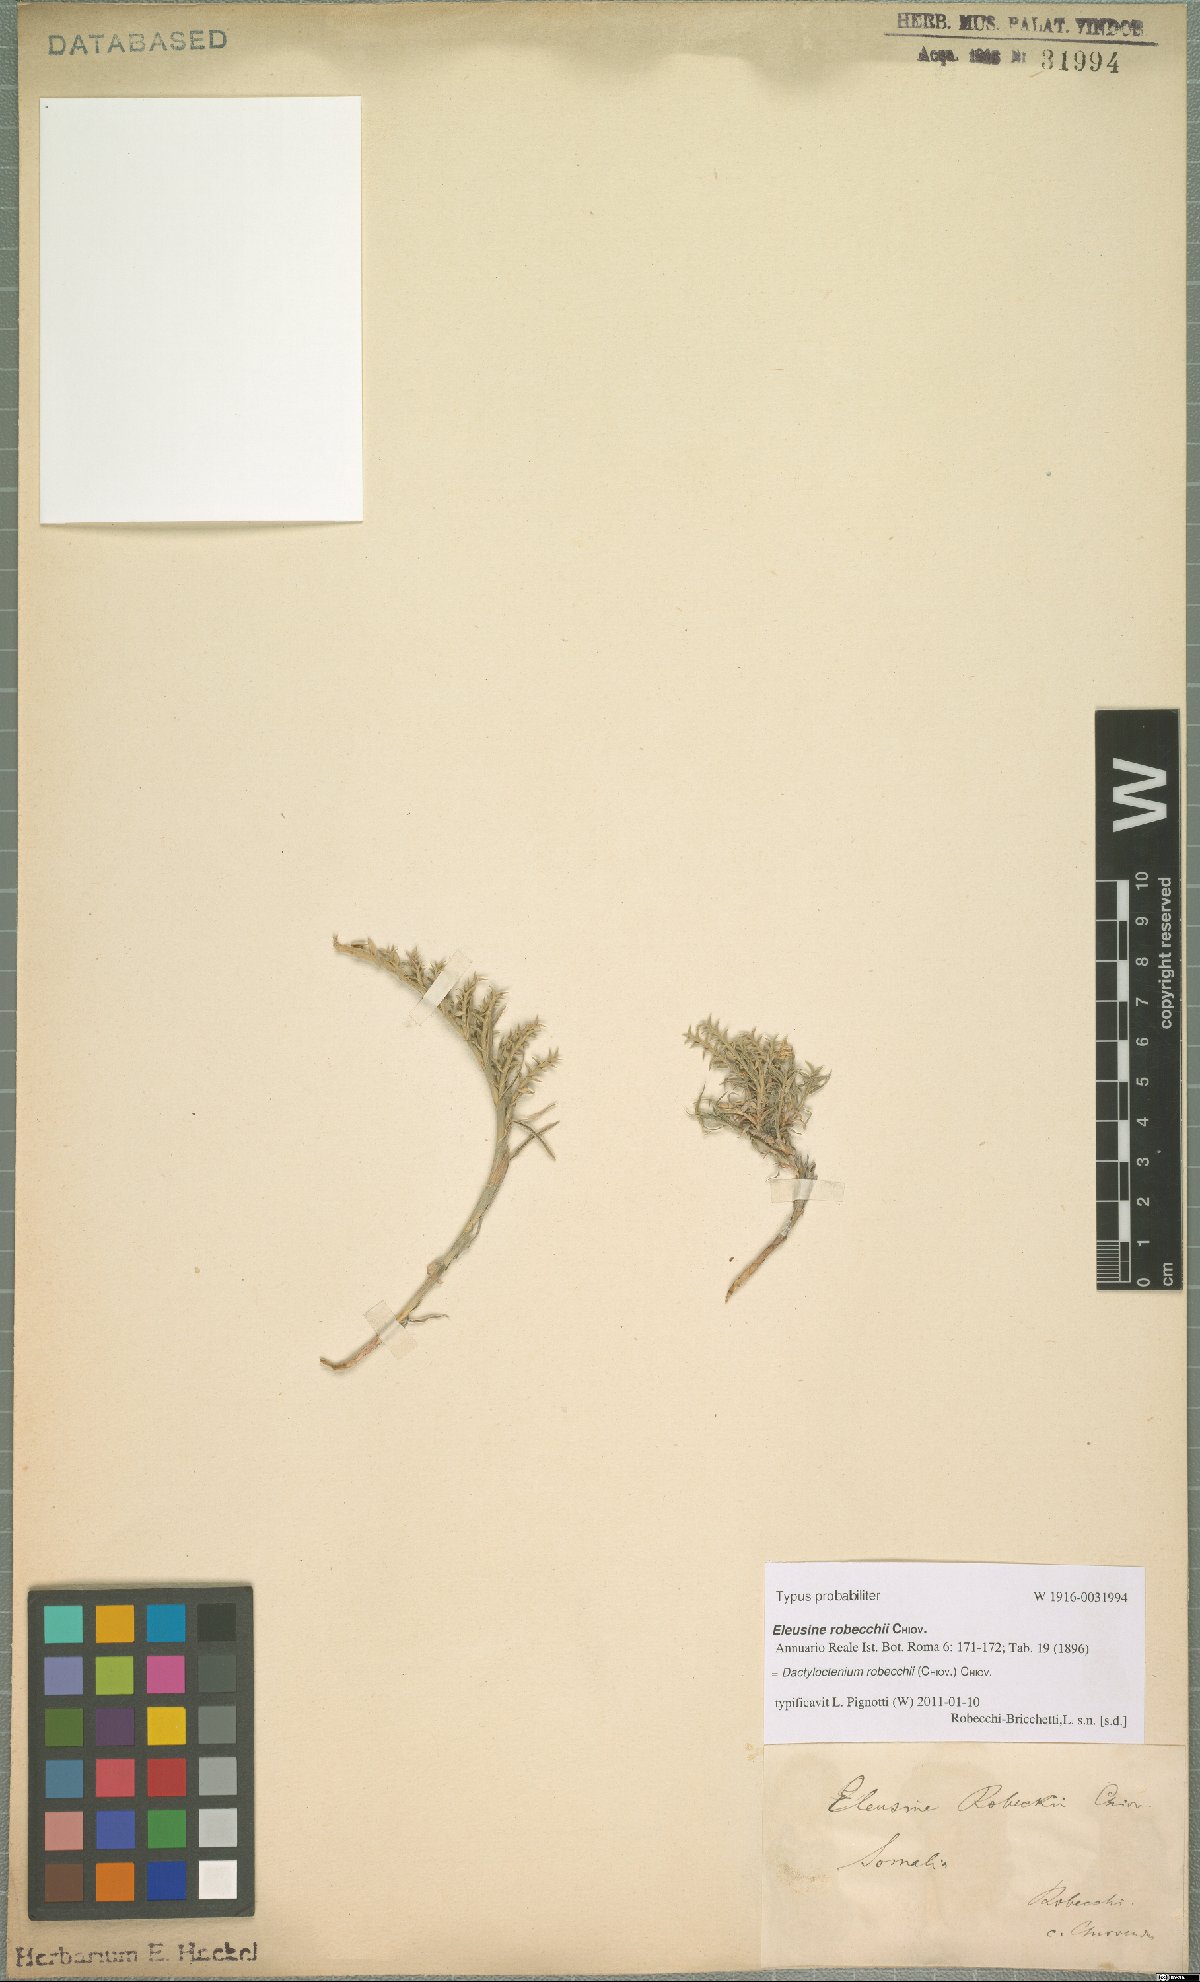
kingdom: Plantae
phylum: Tracheophyta
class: Liliopsida
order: Poales
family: Poaceae
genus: Dactyloctenium
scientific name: Dactyloctenium robecchii
